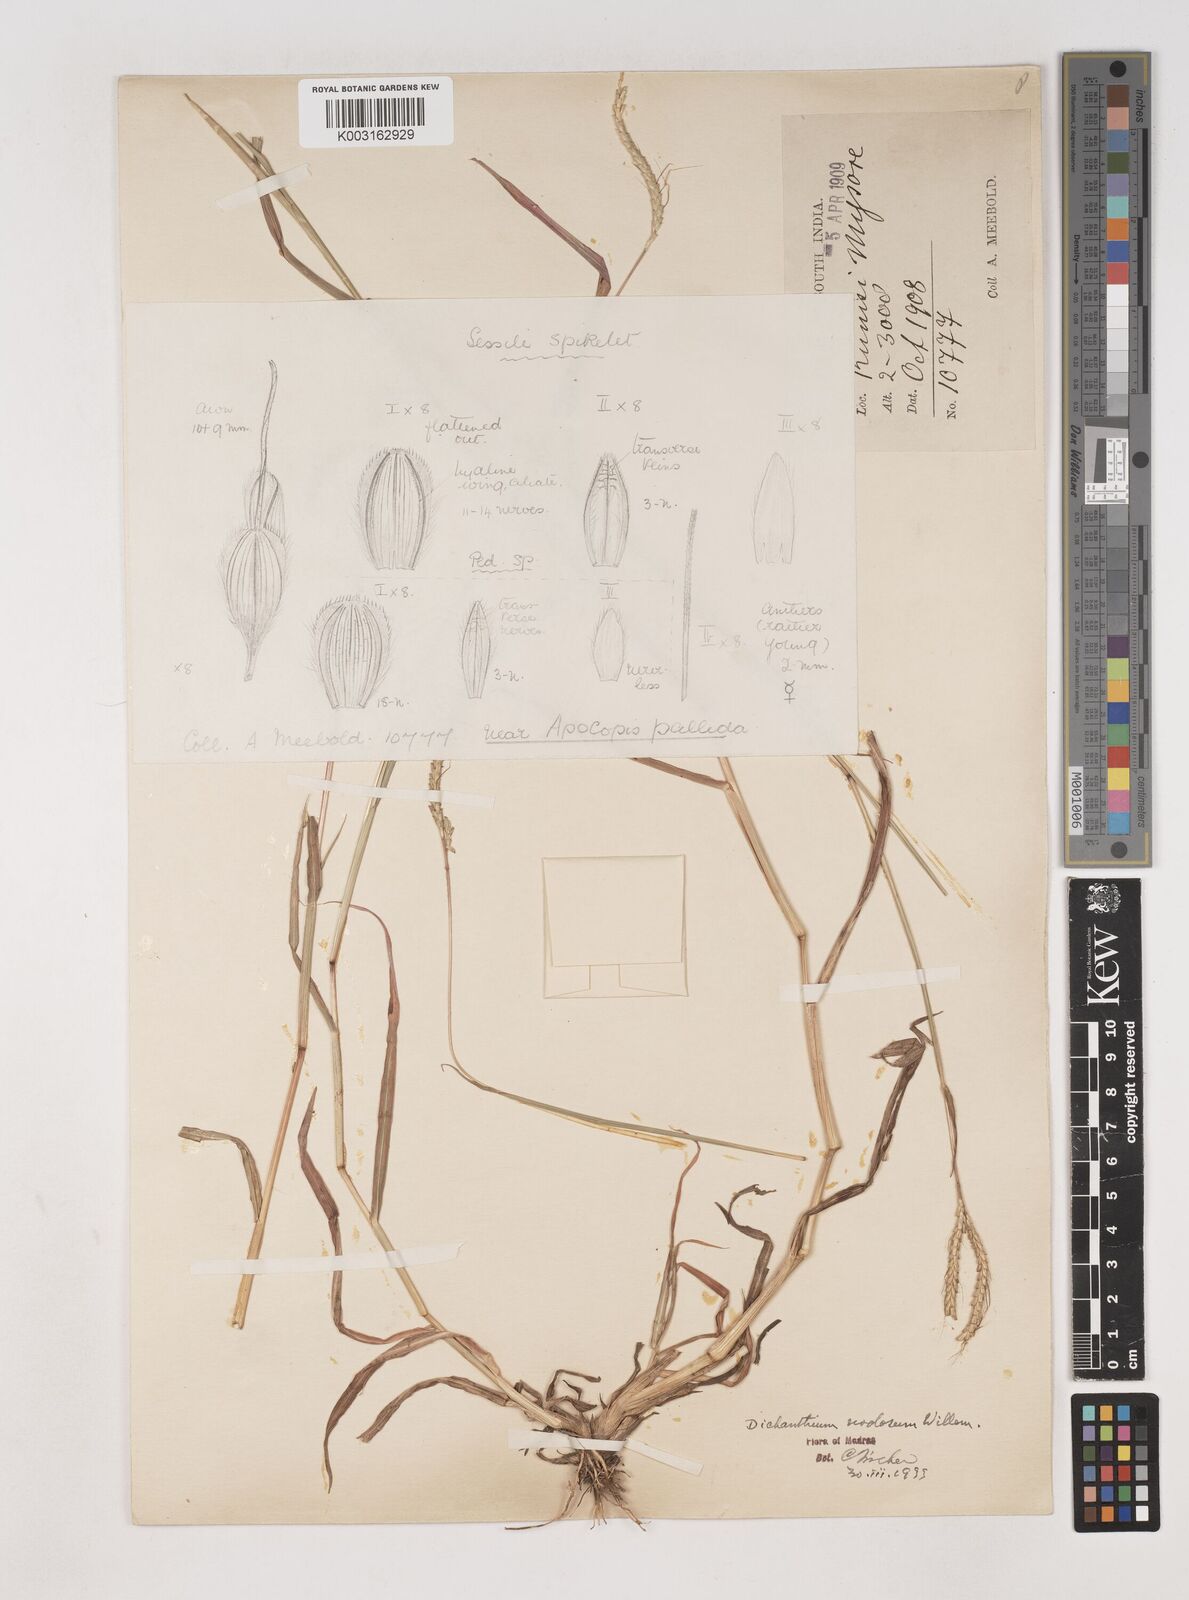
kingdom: Plantae
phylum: Tracheophyta
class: Liliopsida
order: Poales
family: Poaceae
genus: Dichanthium
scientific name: Dichanthium aristatum
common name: Angleton bluestem
